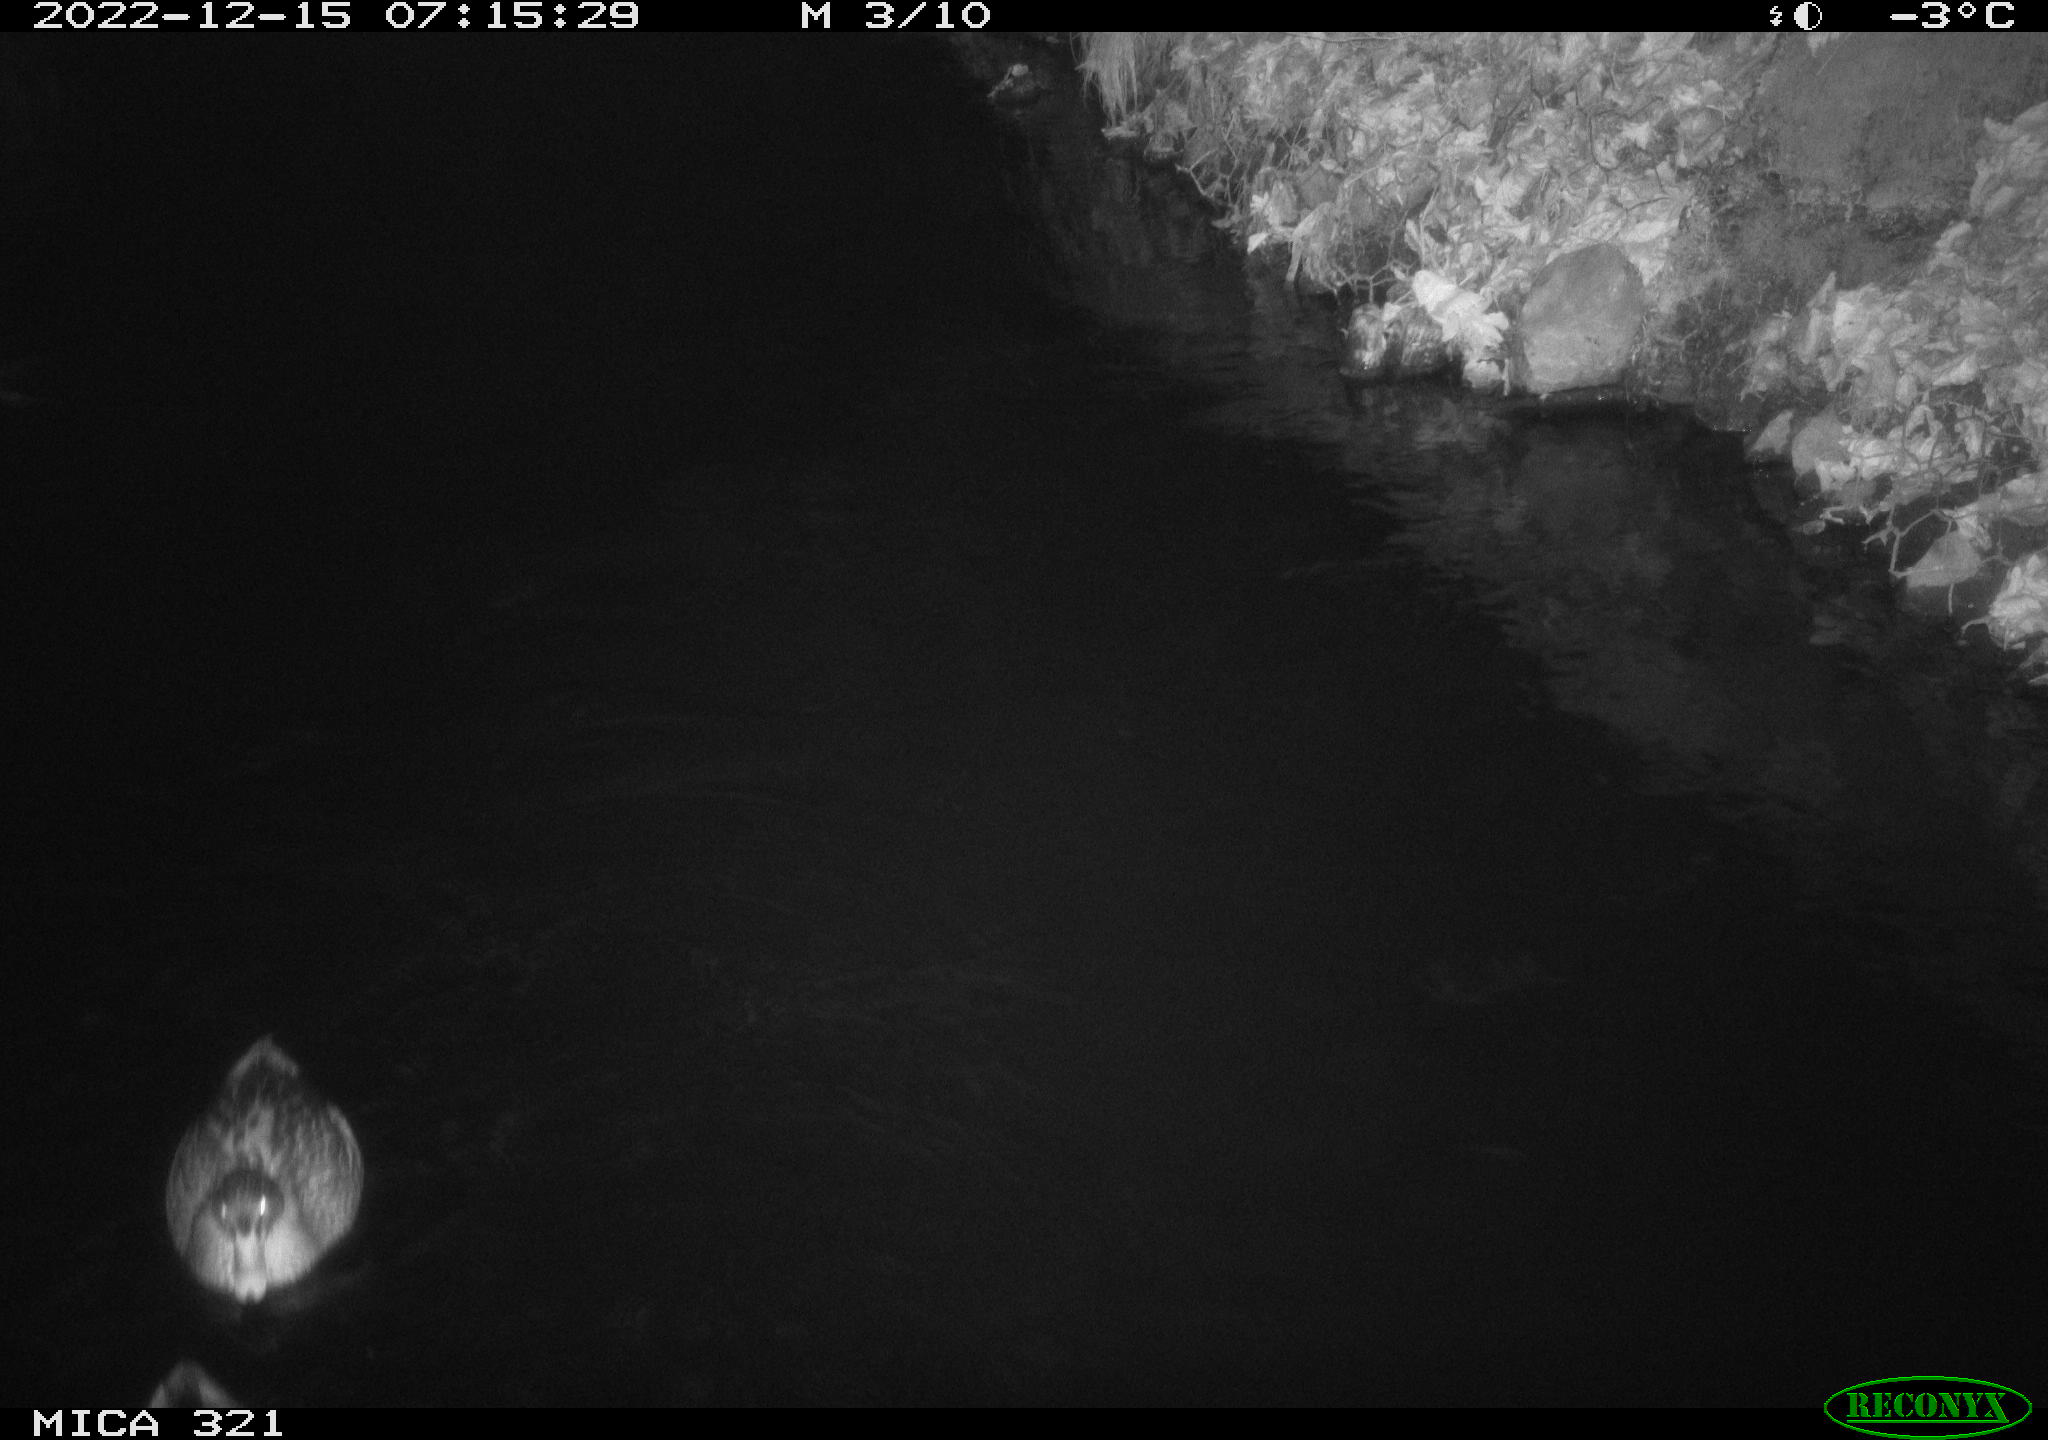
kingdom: Animalia
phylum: Chordata
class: Aves
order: Anseriformes
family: Anatidae
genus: Anas
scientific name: Anas
